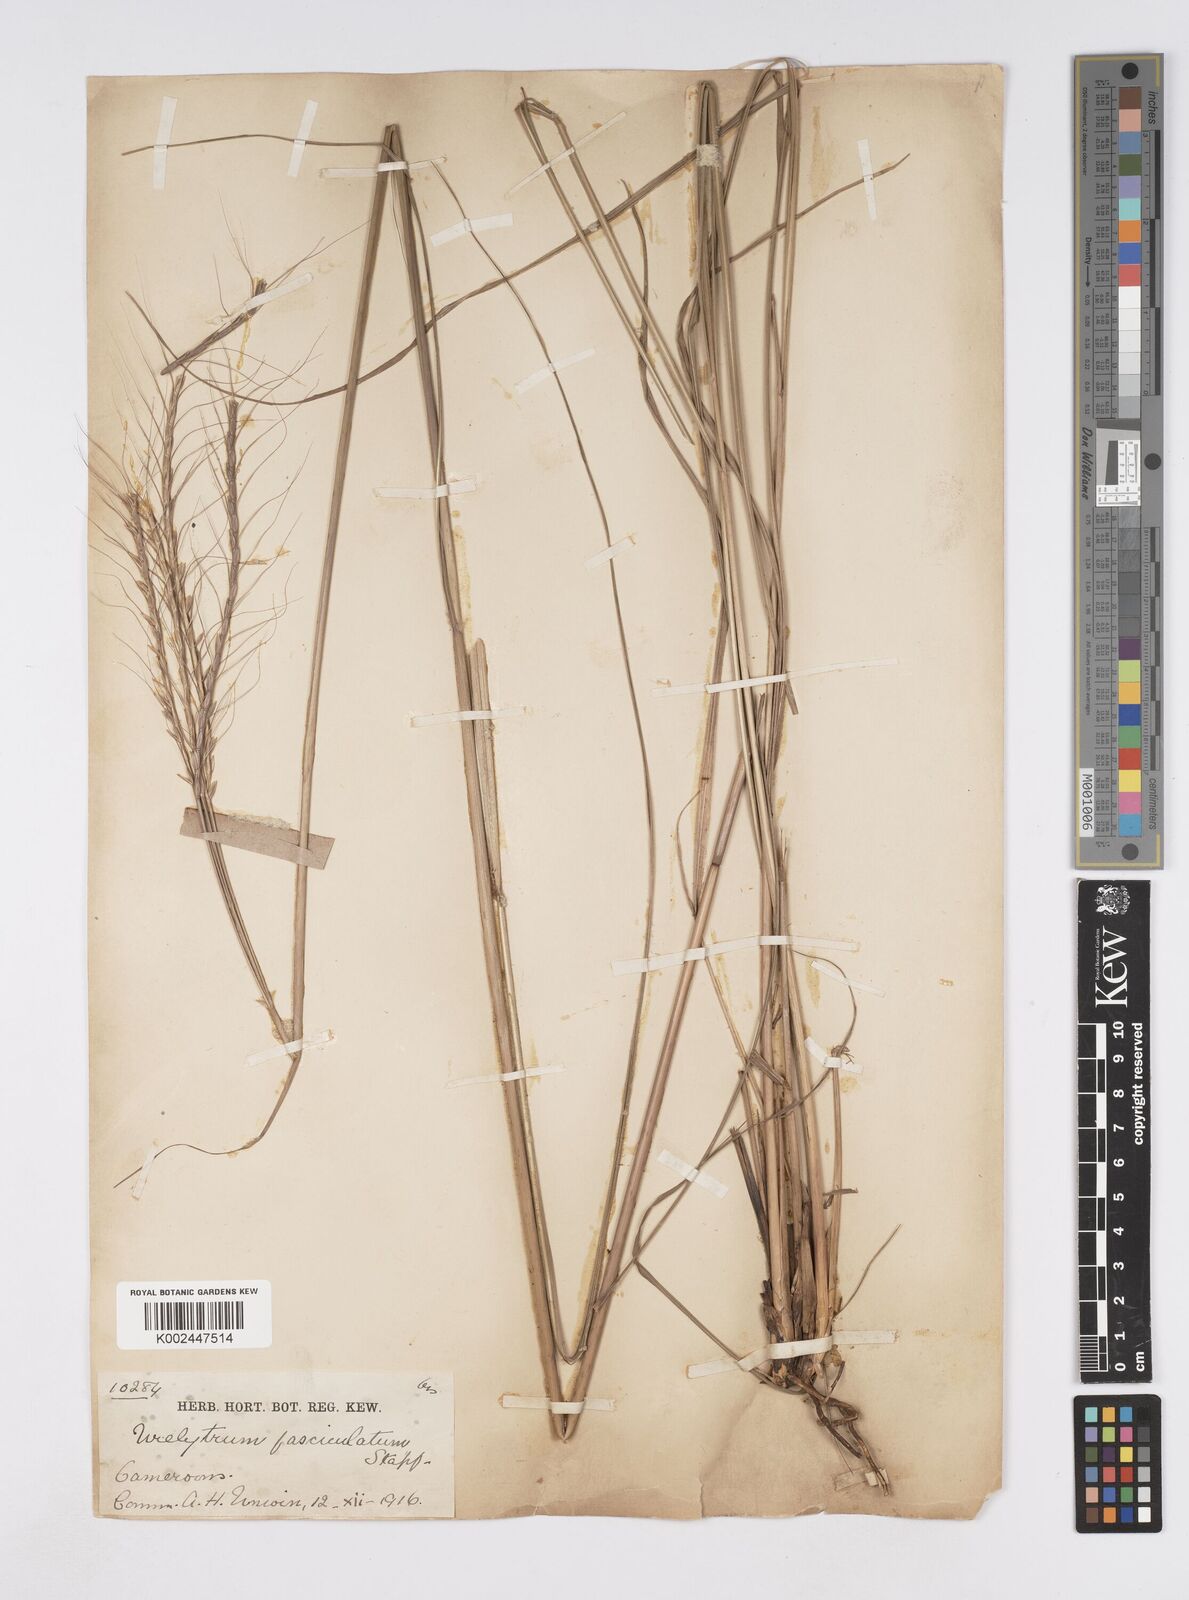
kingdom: Plantae
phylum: Tracheophyta
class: Liliopsida
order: Poales
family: Poaceae
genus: Urelytrum
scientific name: Urelytrum digitatum
